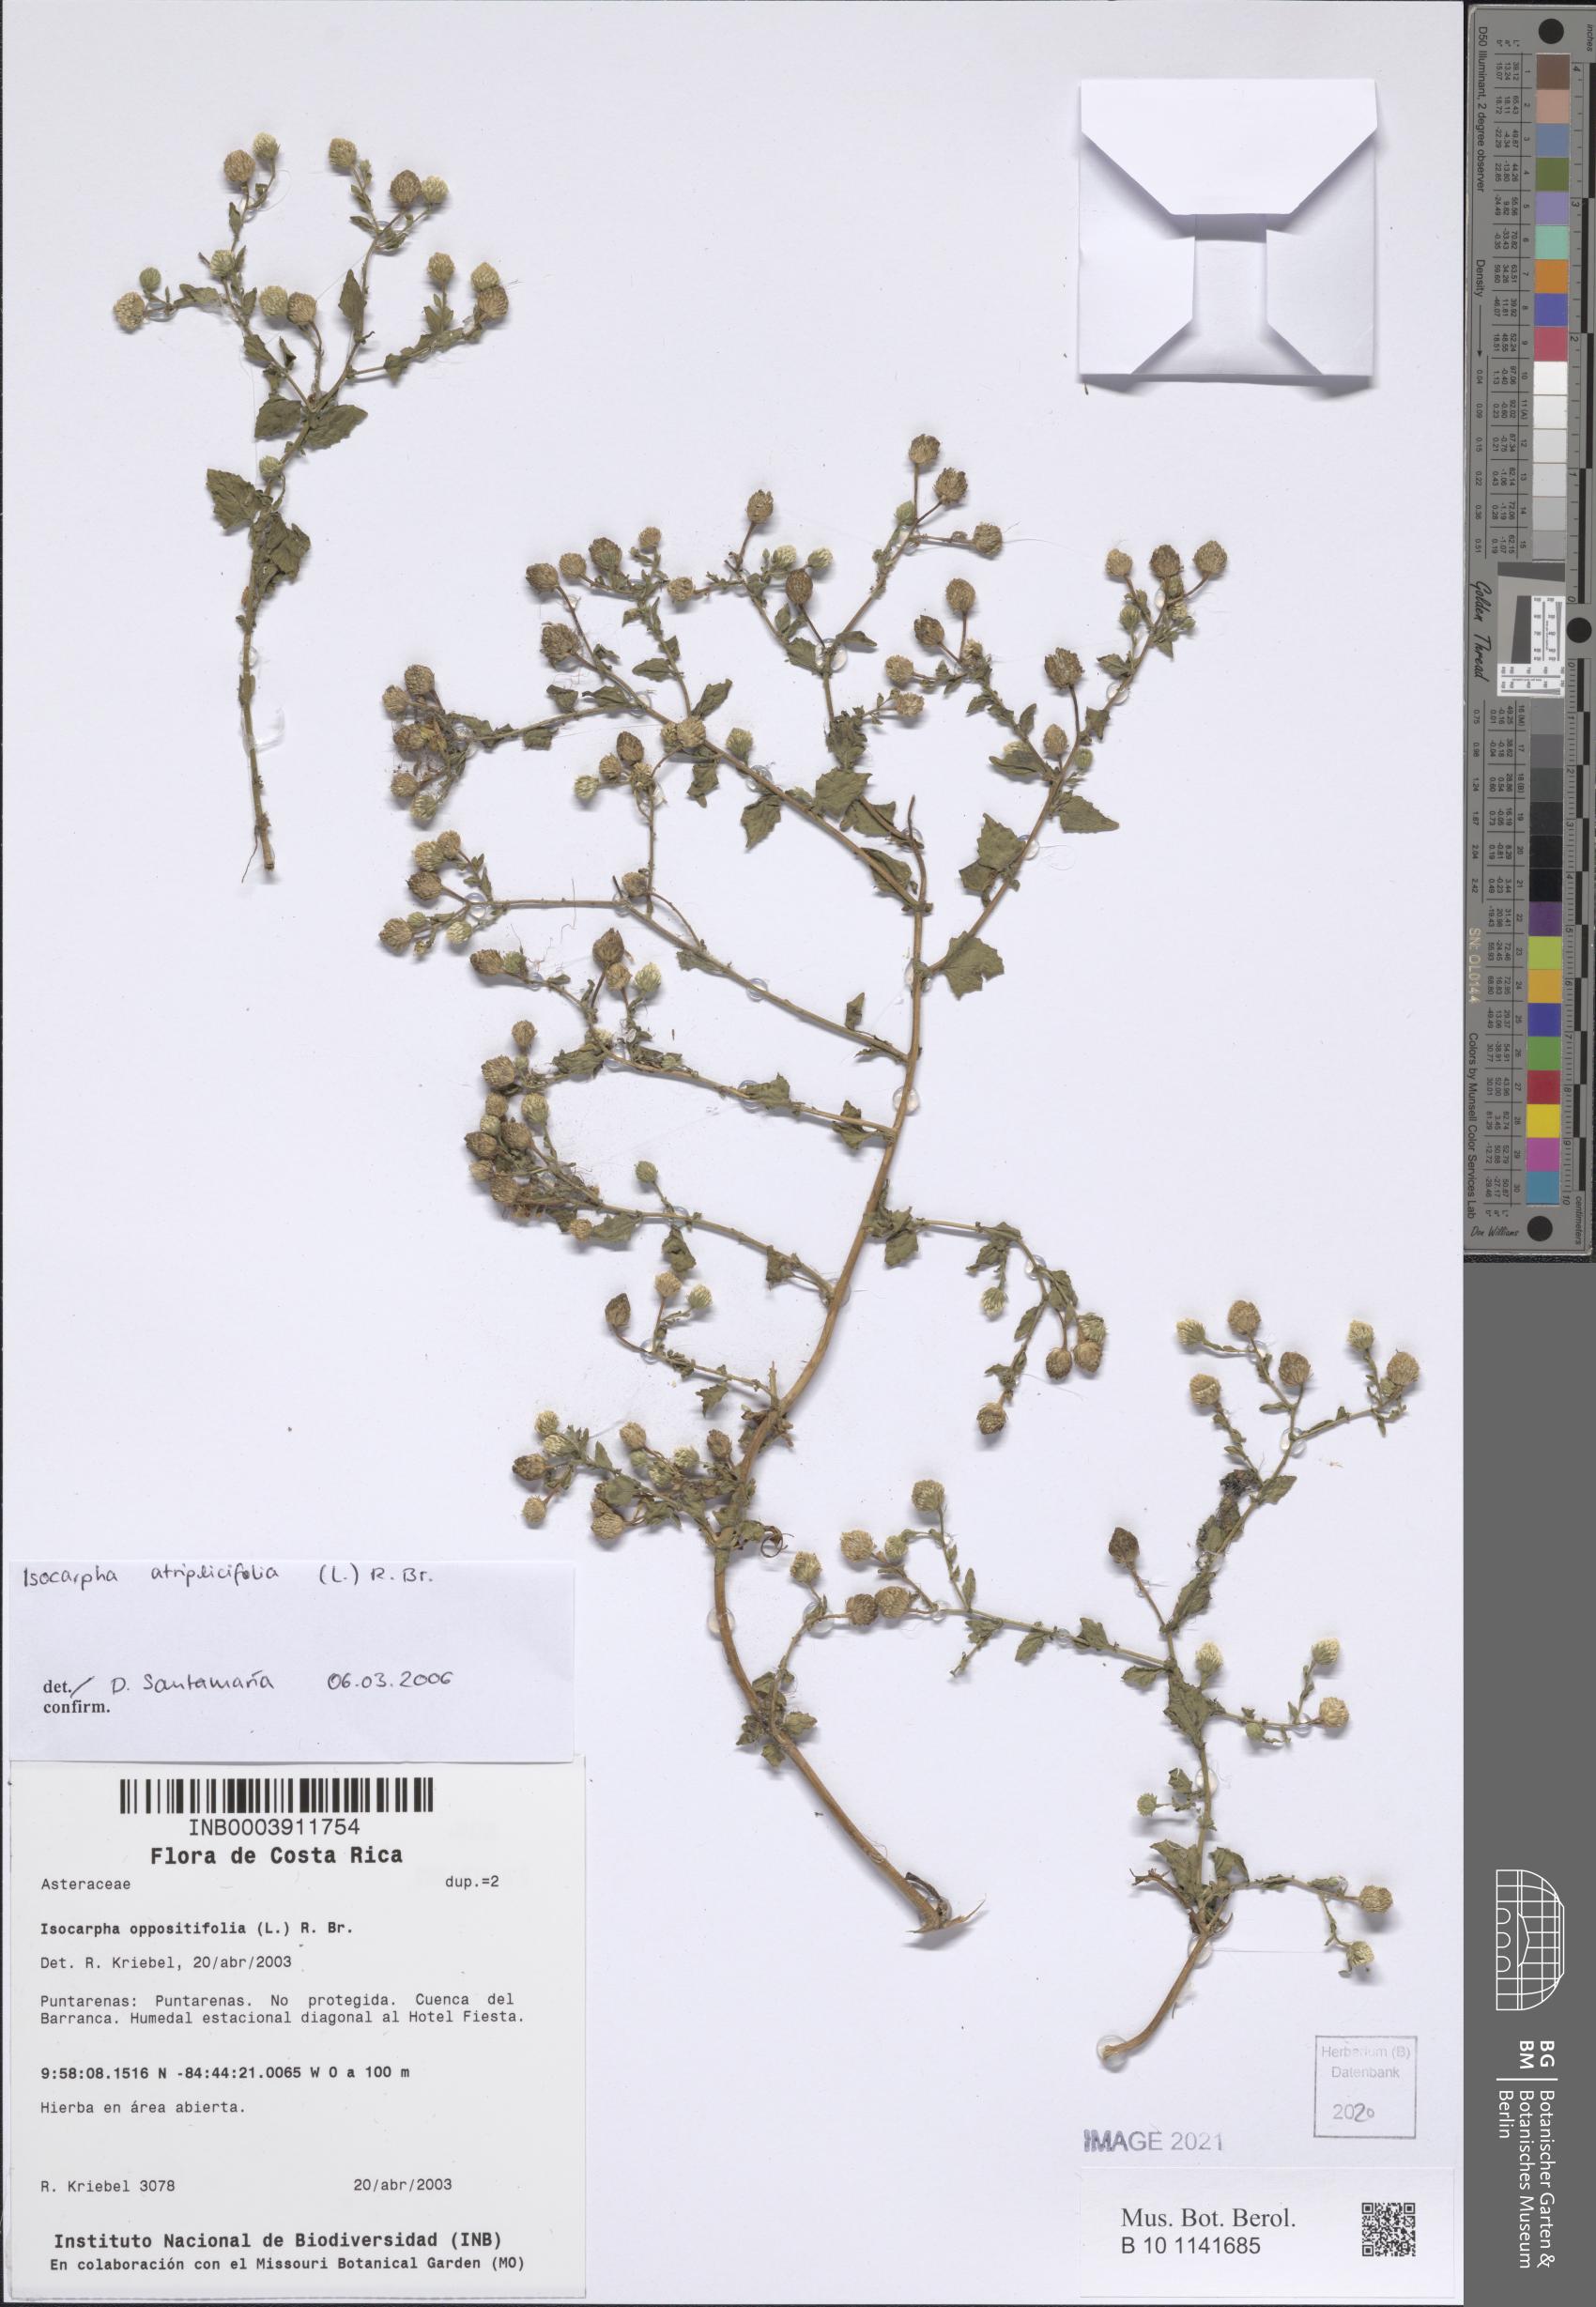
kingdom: Plantae
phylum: Tracheophyta
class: Magnoliopsida
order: Asterales
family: Asteraceae
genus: Isocarpha
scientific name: Isocarpha atriplicifolia
